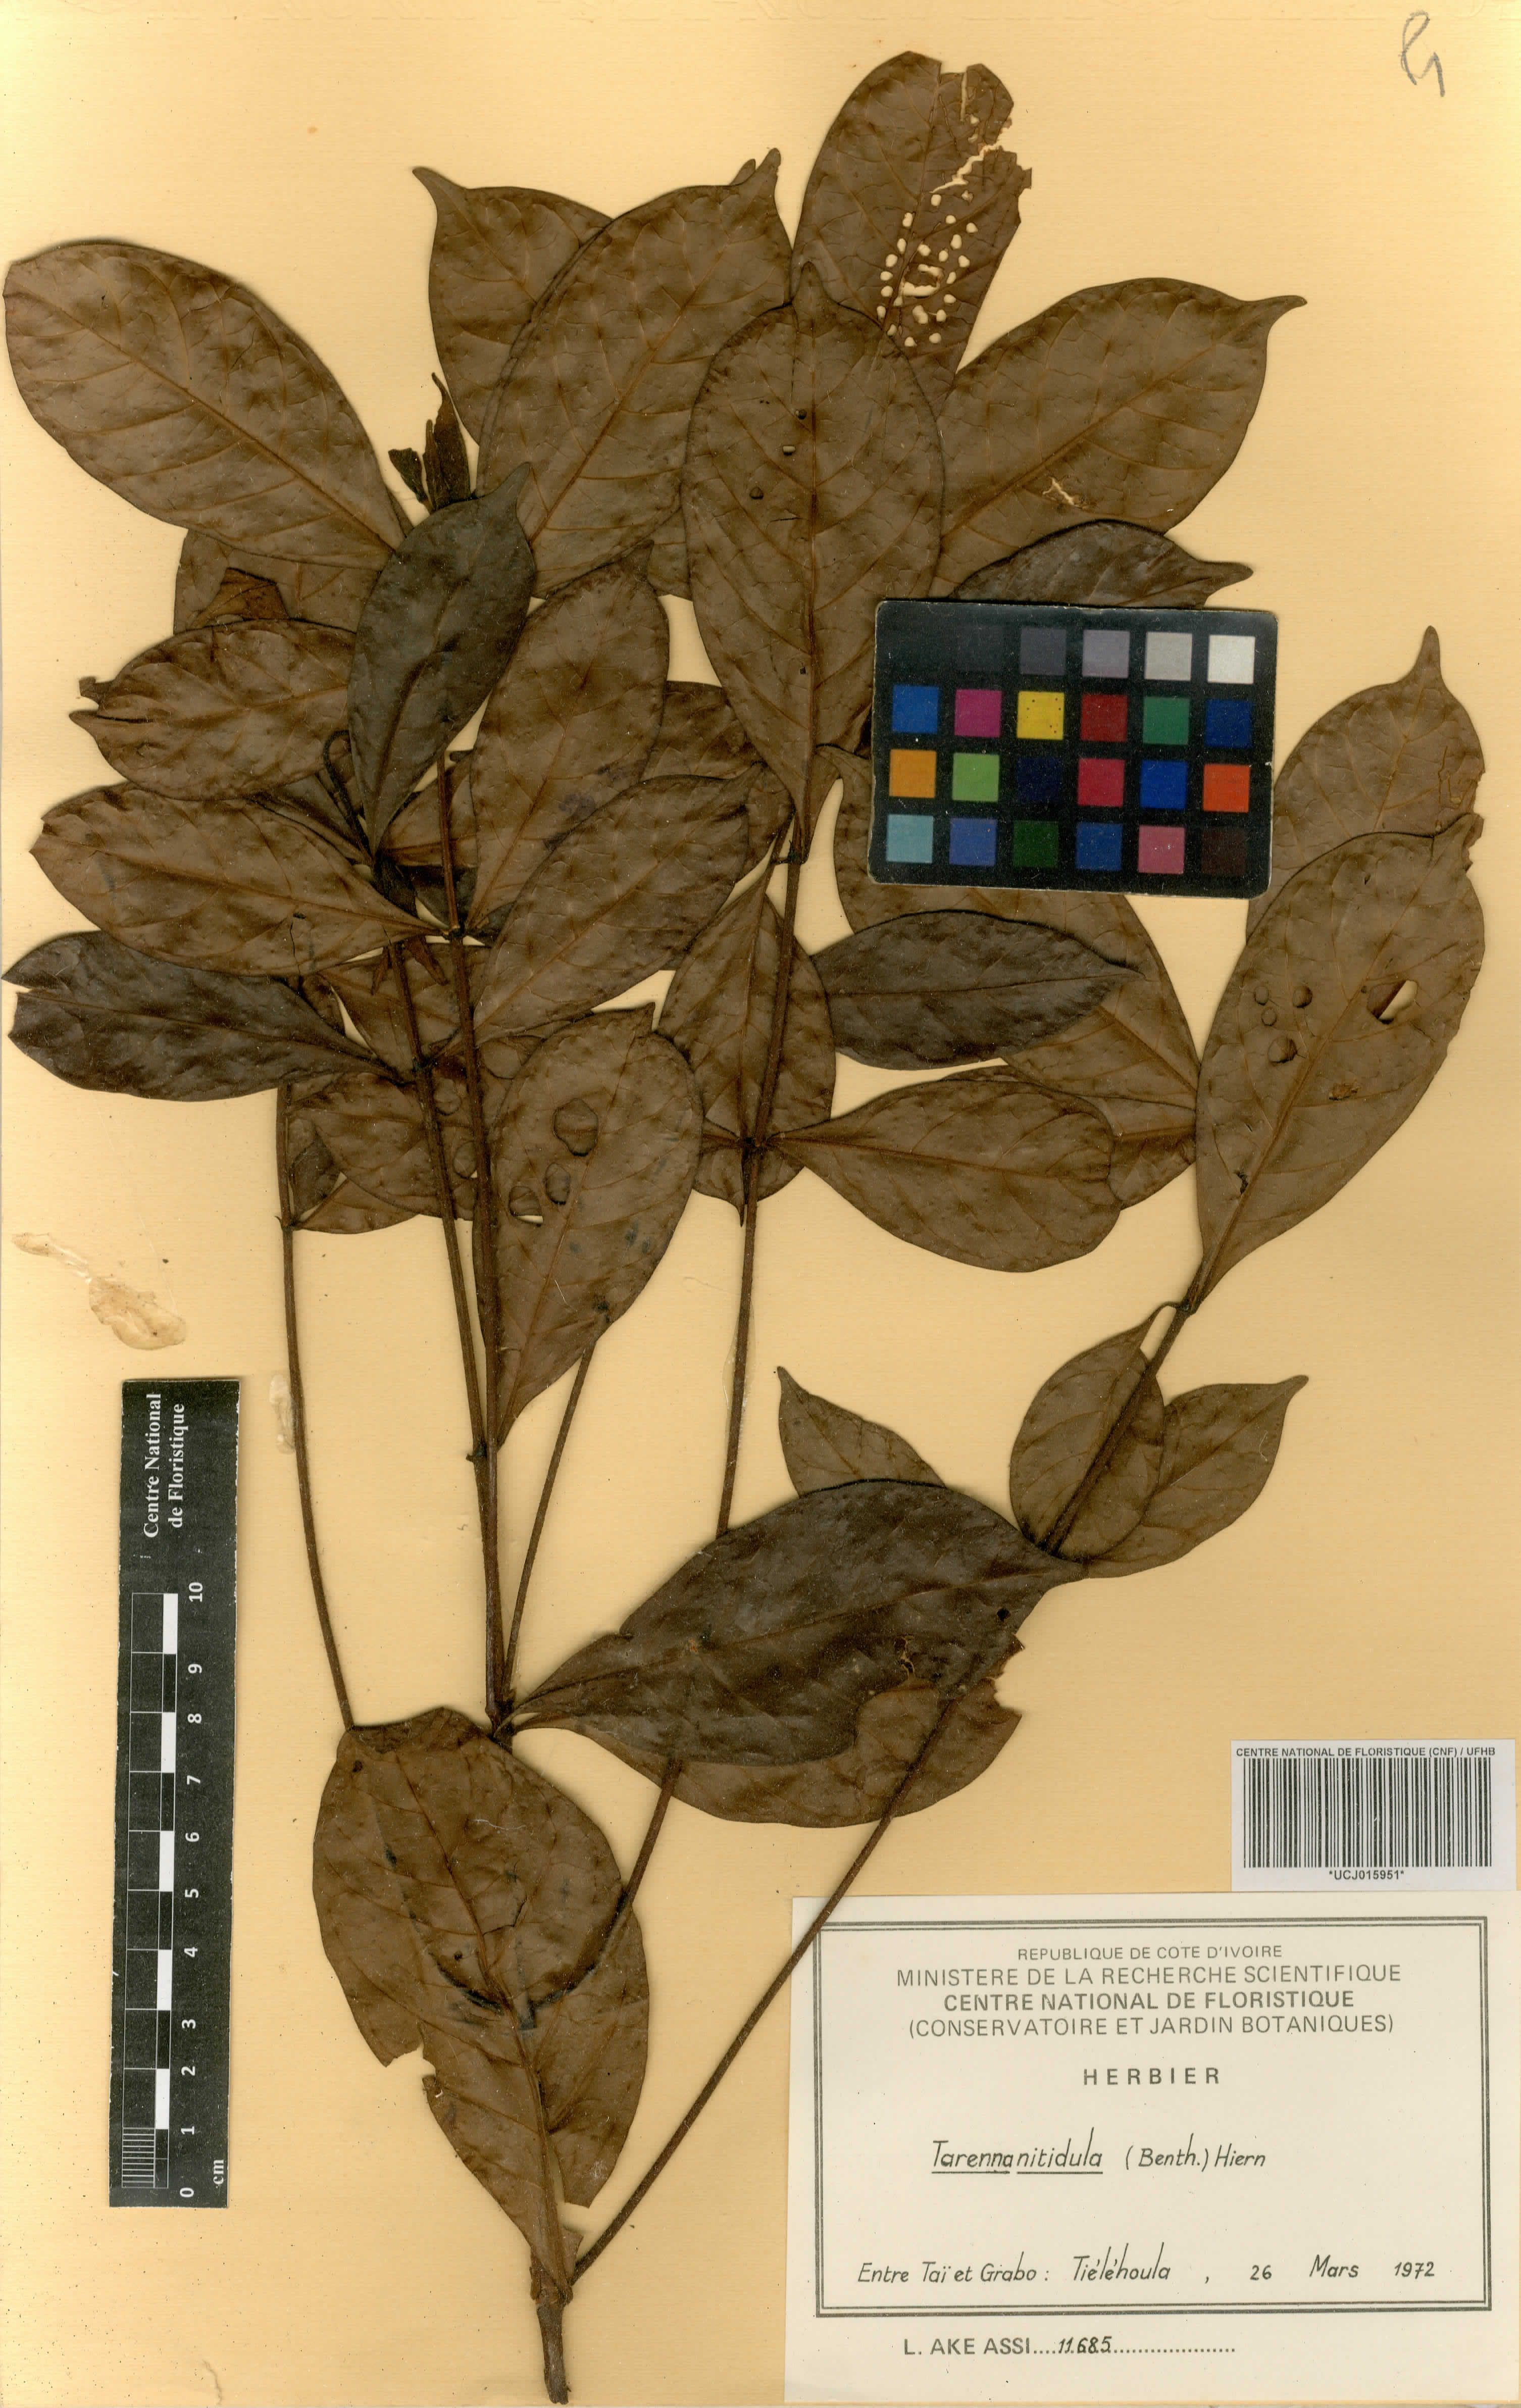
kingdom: Plantae
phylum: Tracheophyta
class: Magnoliopsida
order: Gentianales
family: Rubiaceae
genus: Tarenna
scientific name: Tarenna nitidula
